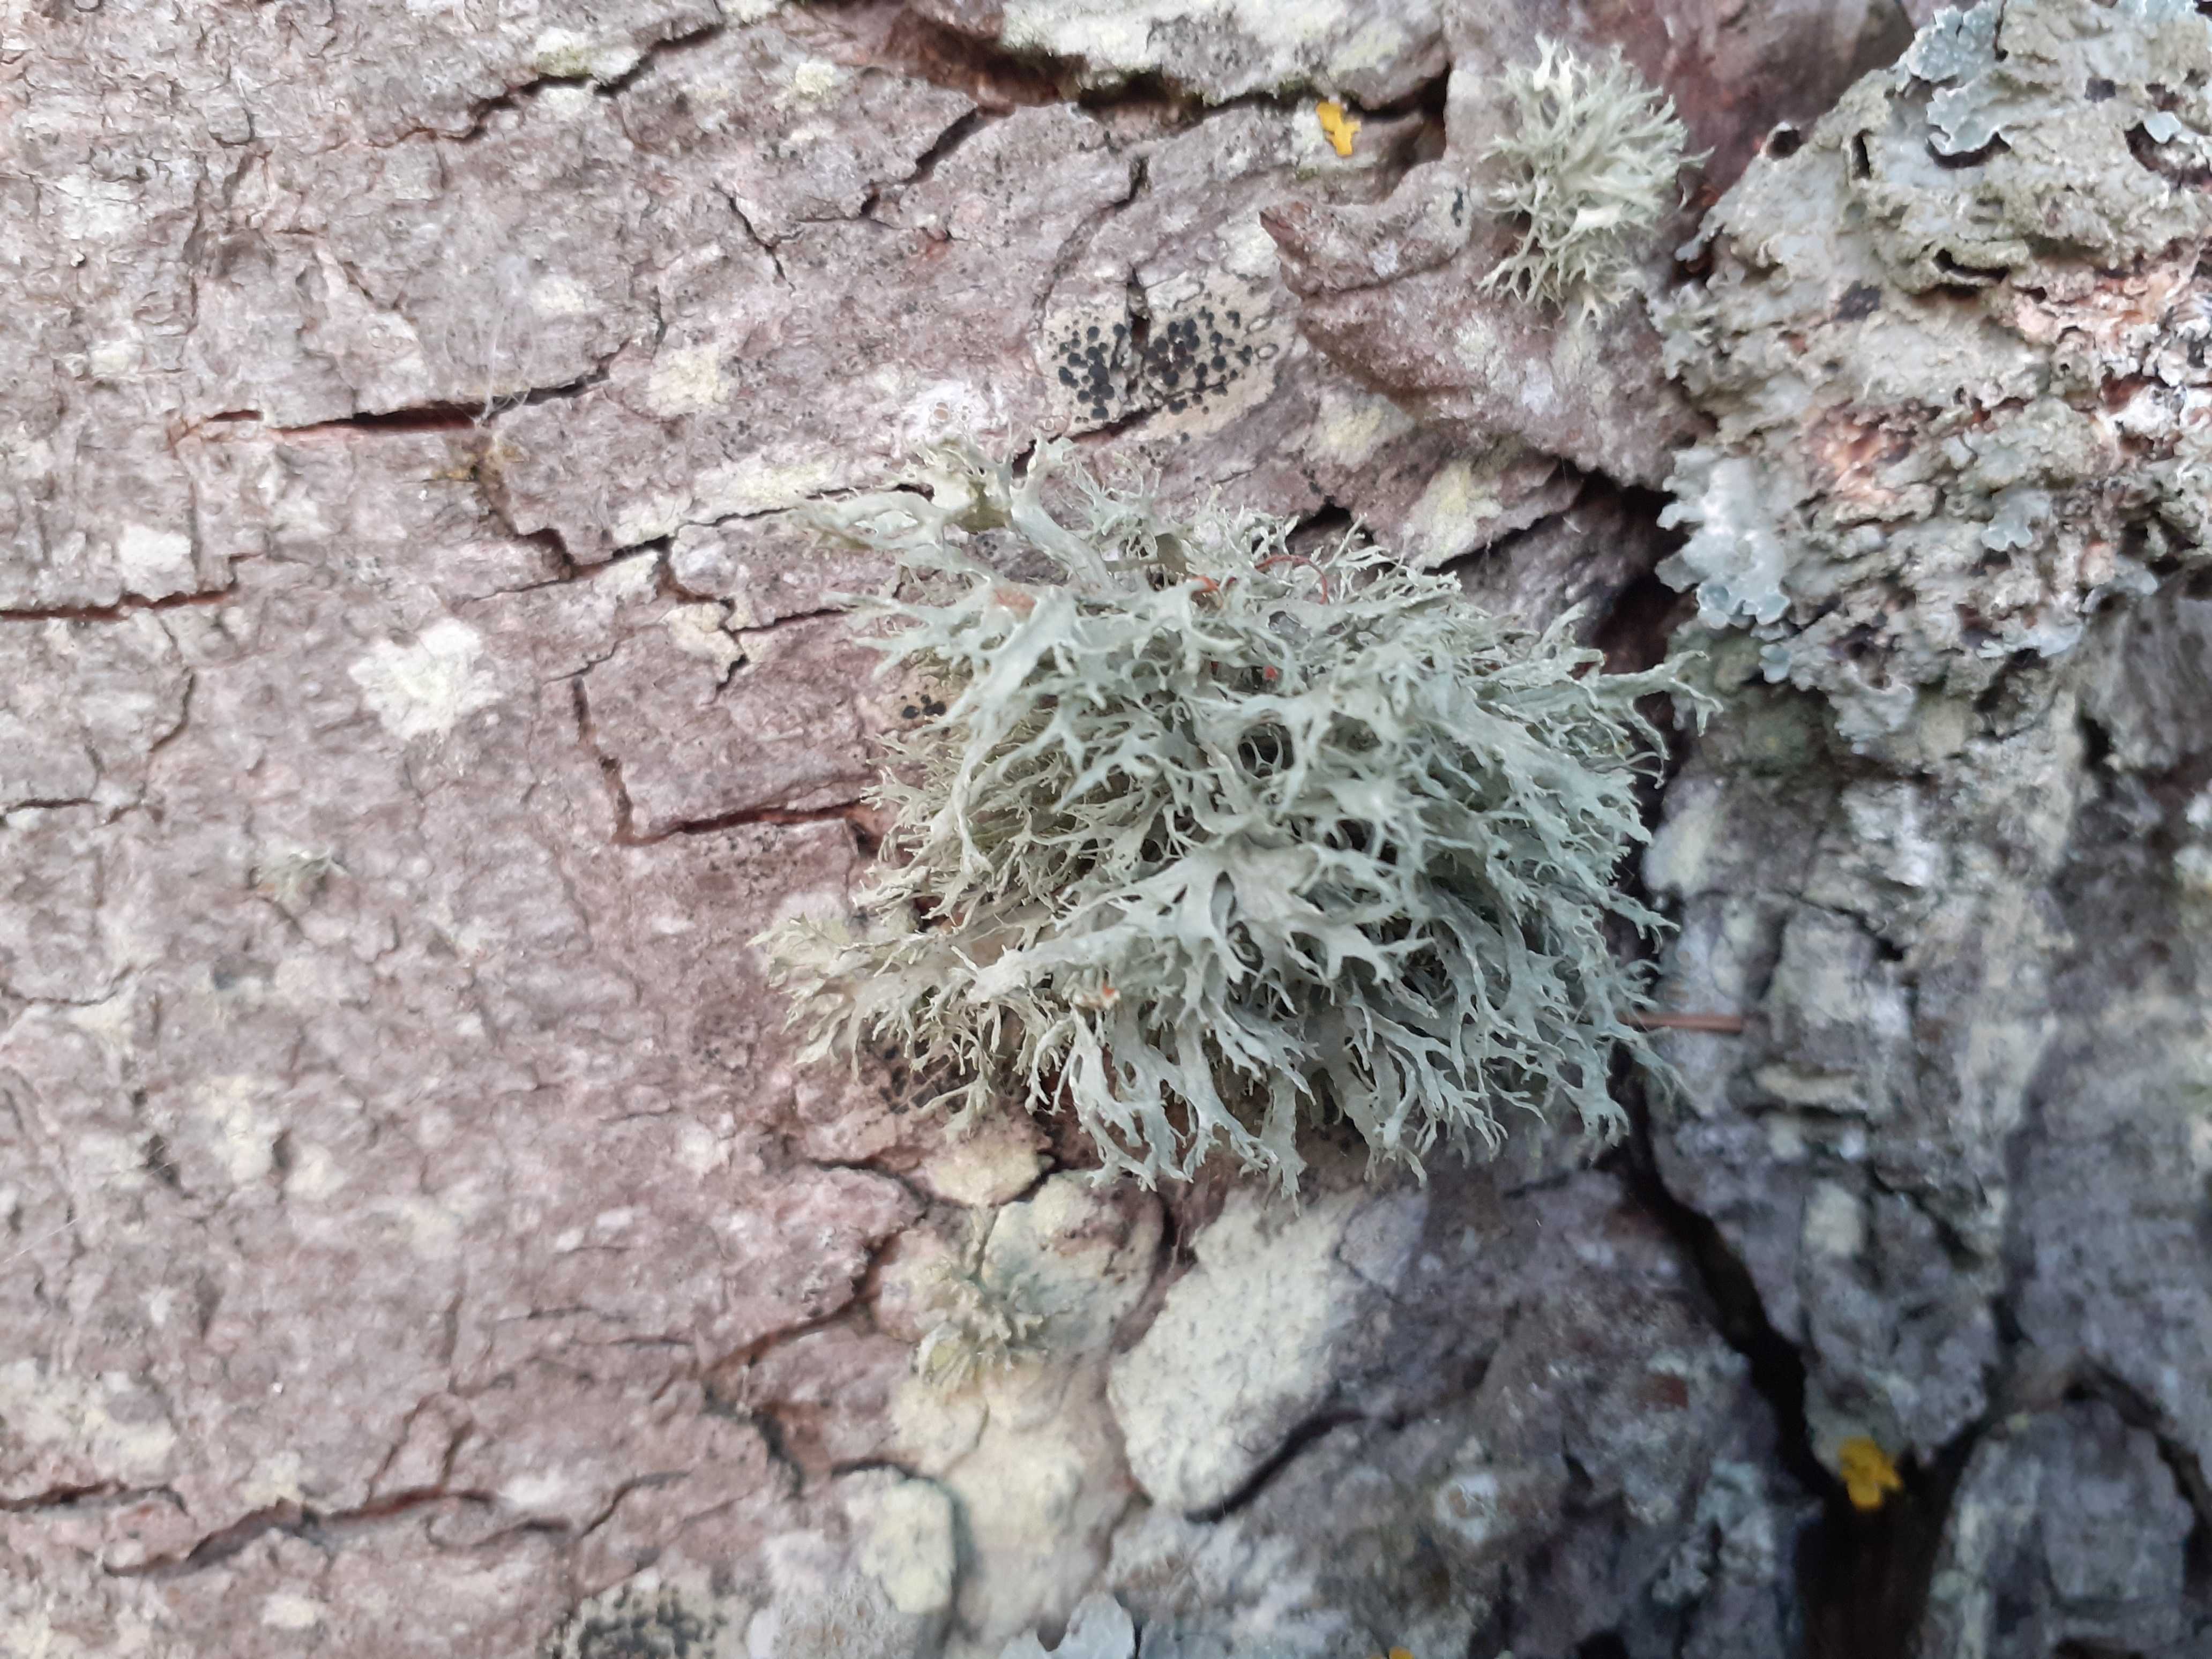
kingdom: Fungi
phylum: Ascomycota
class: Lecanoromycetes
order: Lecanorales
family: Ramalinaceae
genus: Ramalina
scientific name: Ramalina farinacea
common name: melet grenlav
